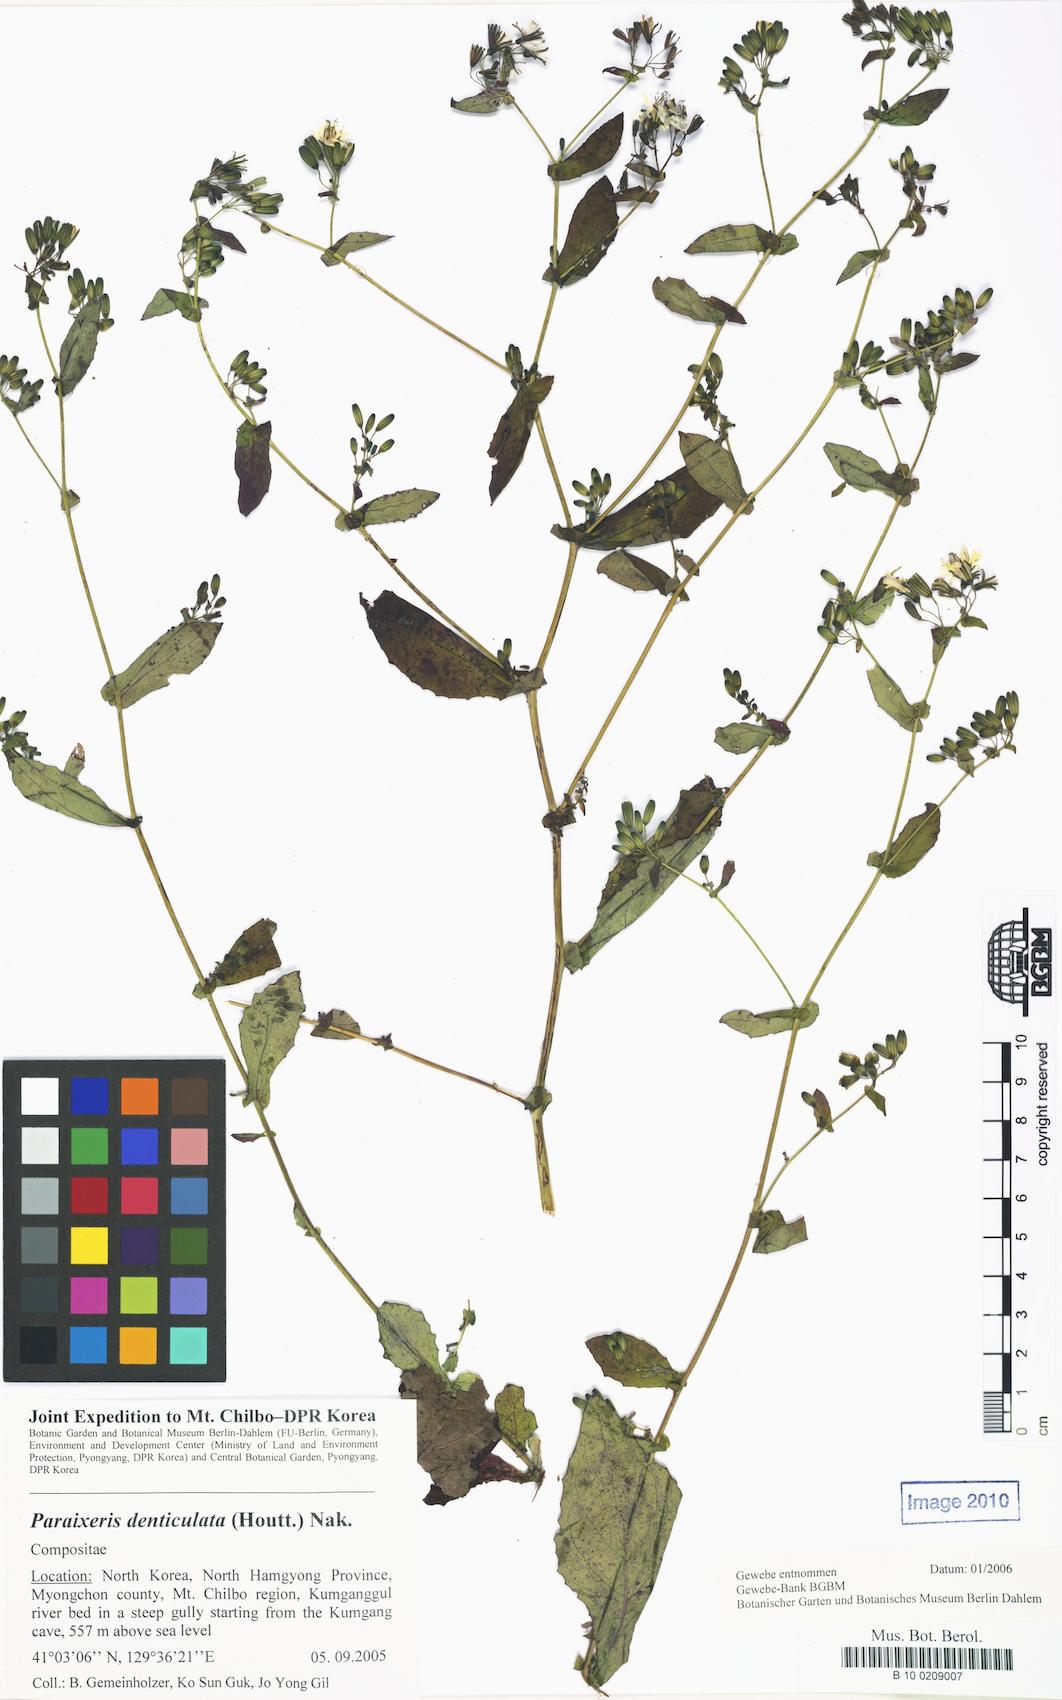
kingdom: Plantae
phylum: Tracheophyta
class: Magnoliopsida
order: Asterales
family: Asteraceae
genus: Crepidiastrum
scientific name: Crepidiastrum denticulatum
